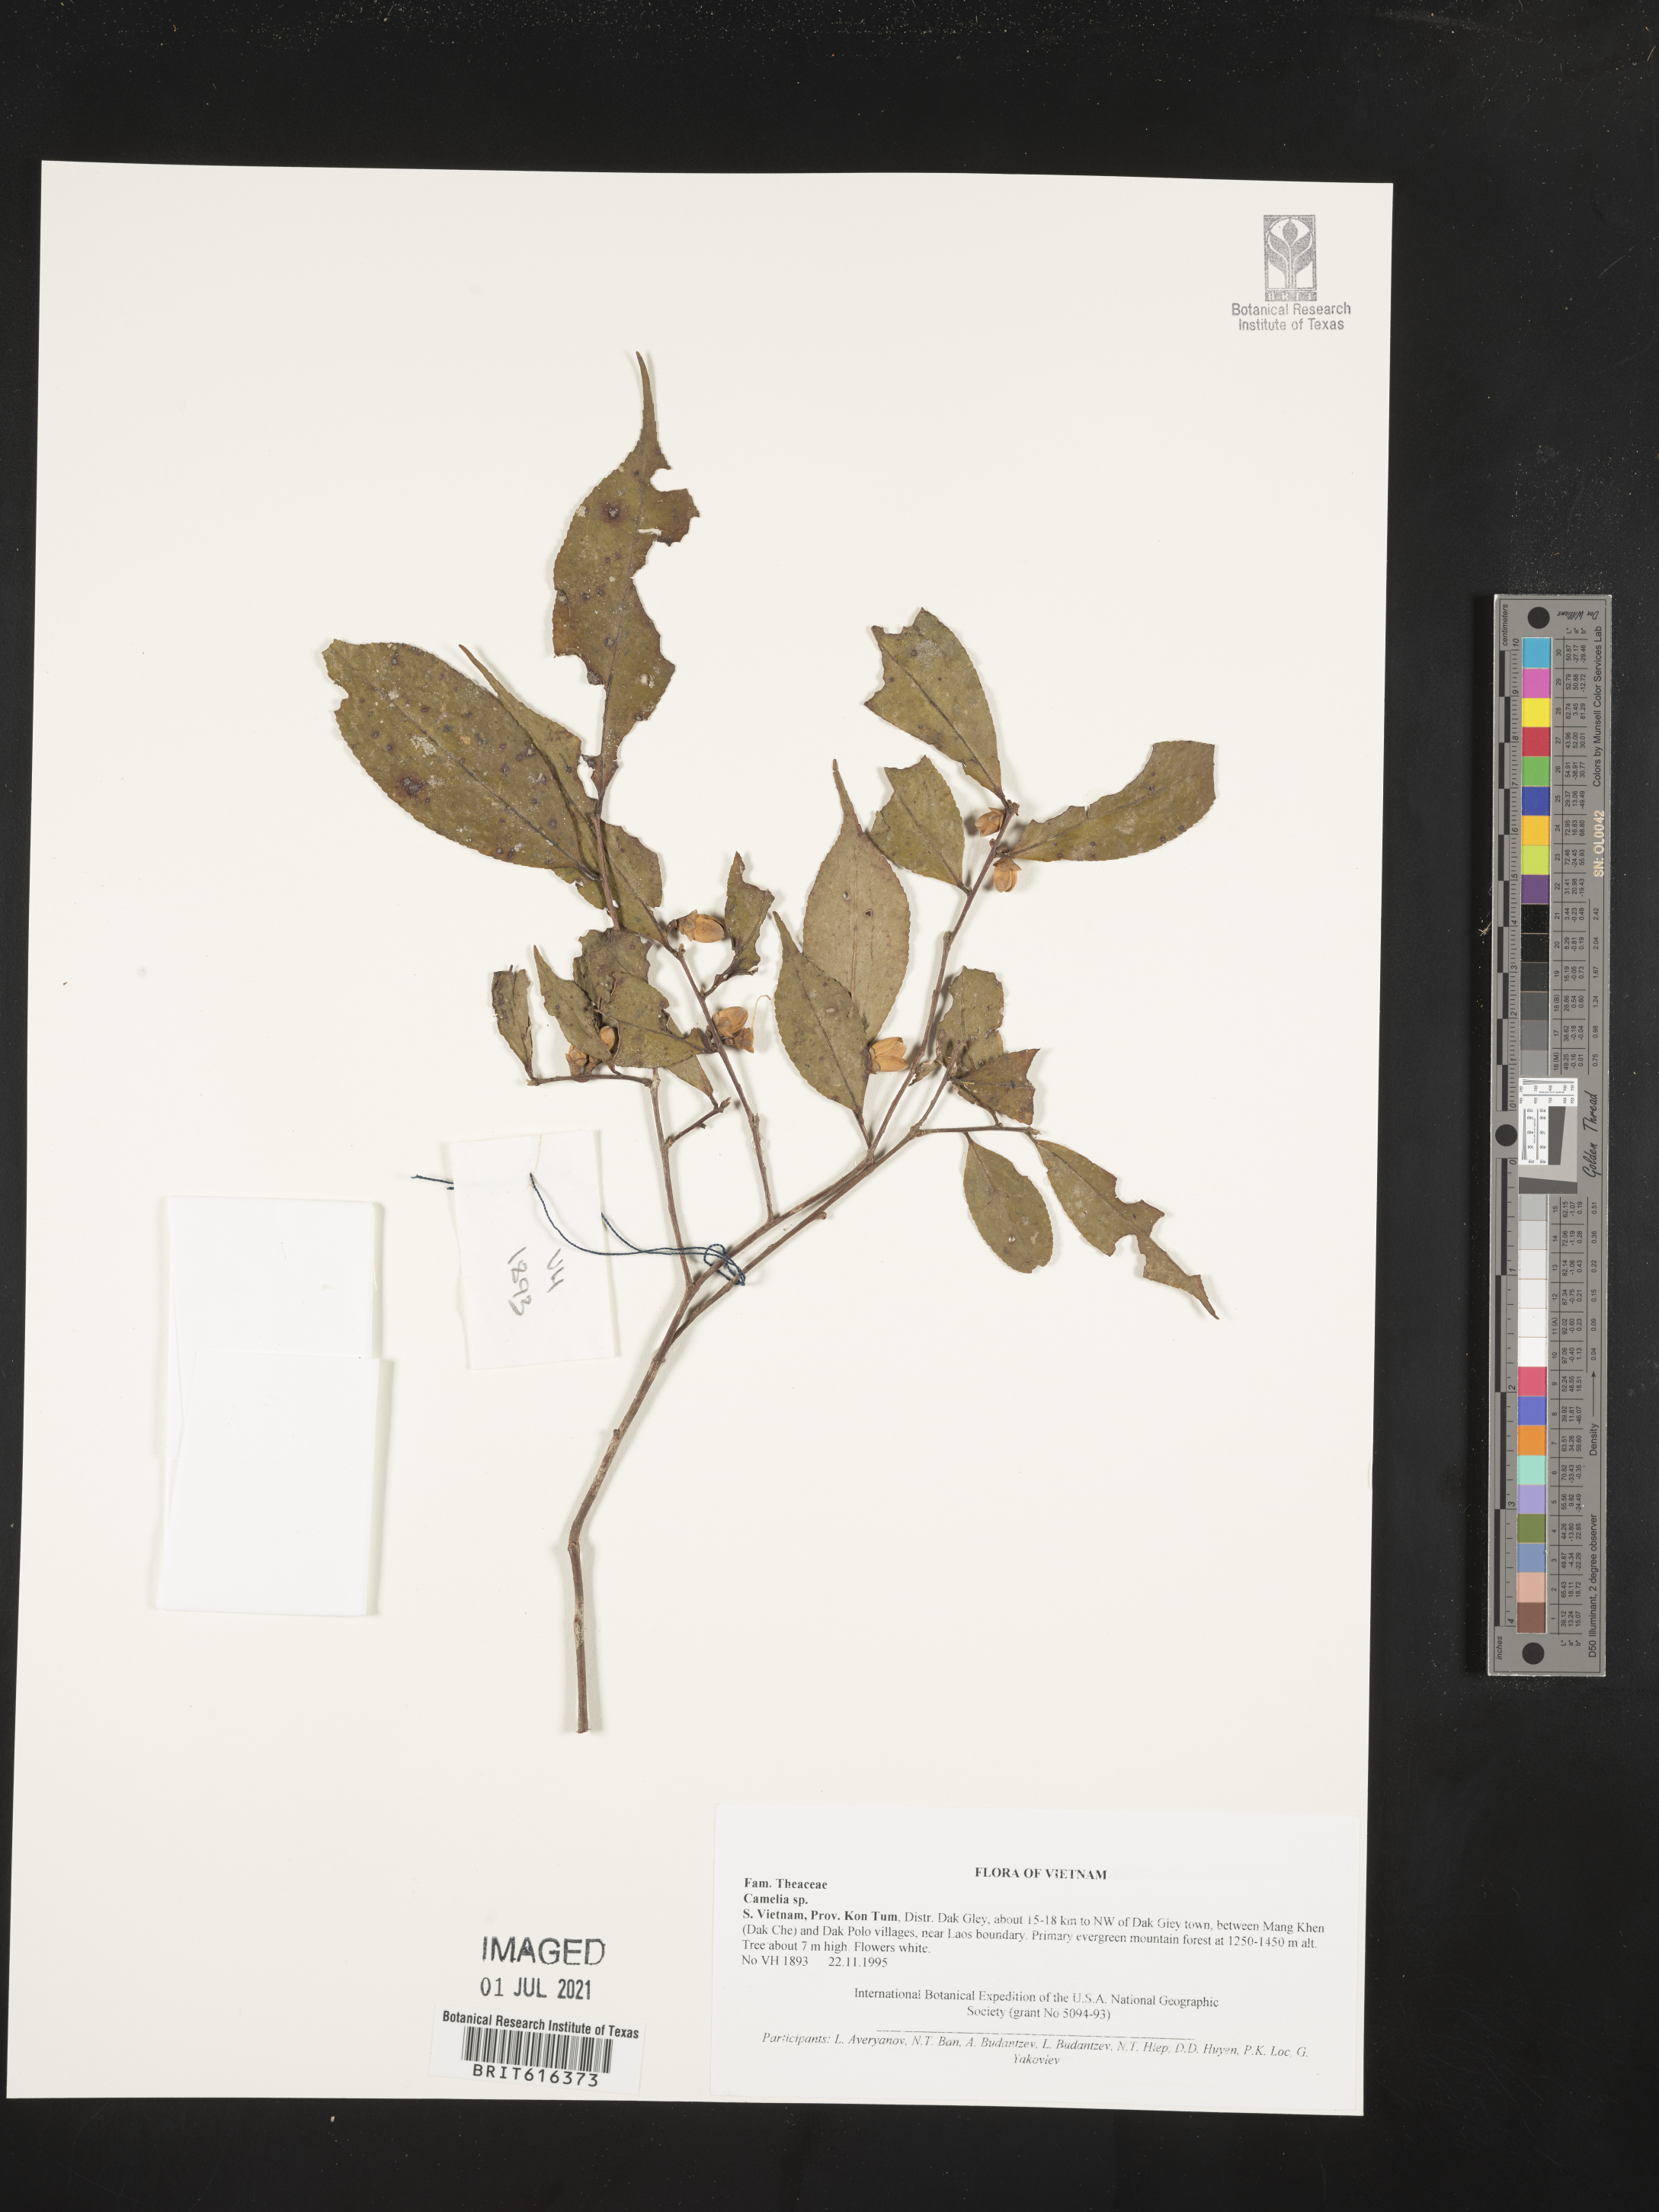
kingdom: Plantae
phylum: Tracheophyta
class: Magnoliopsida
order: Brassicales
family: Brassicaceae
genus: Camelina
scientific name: Camelina
